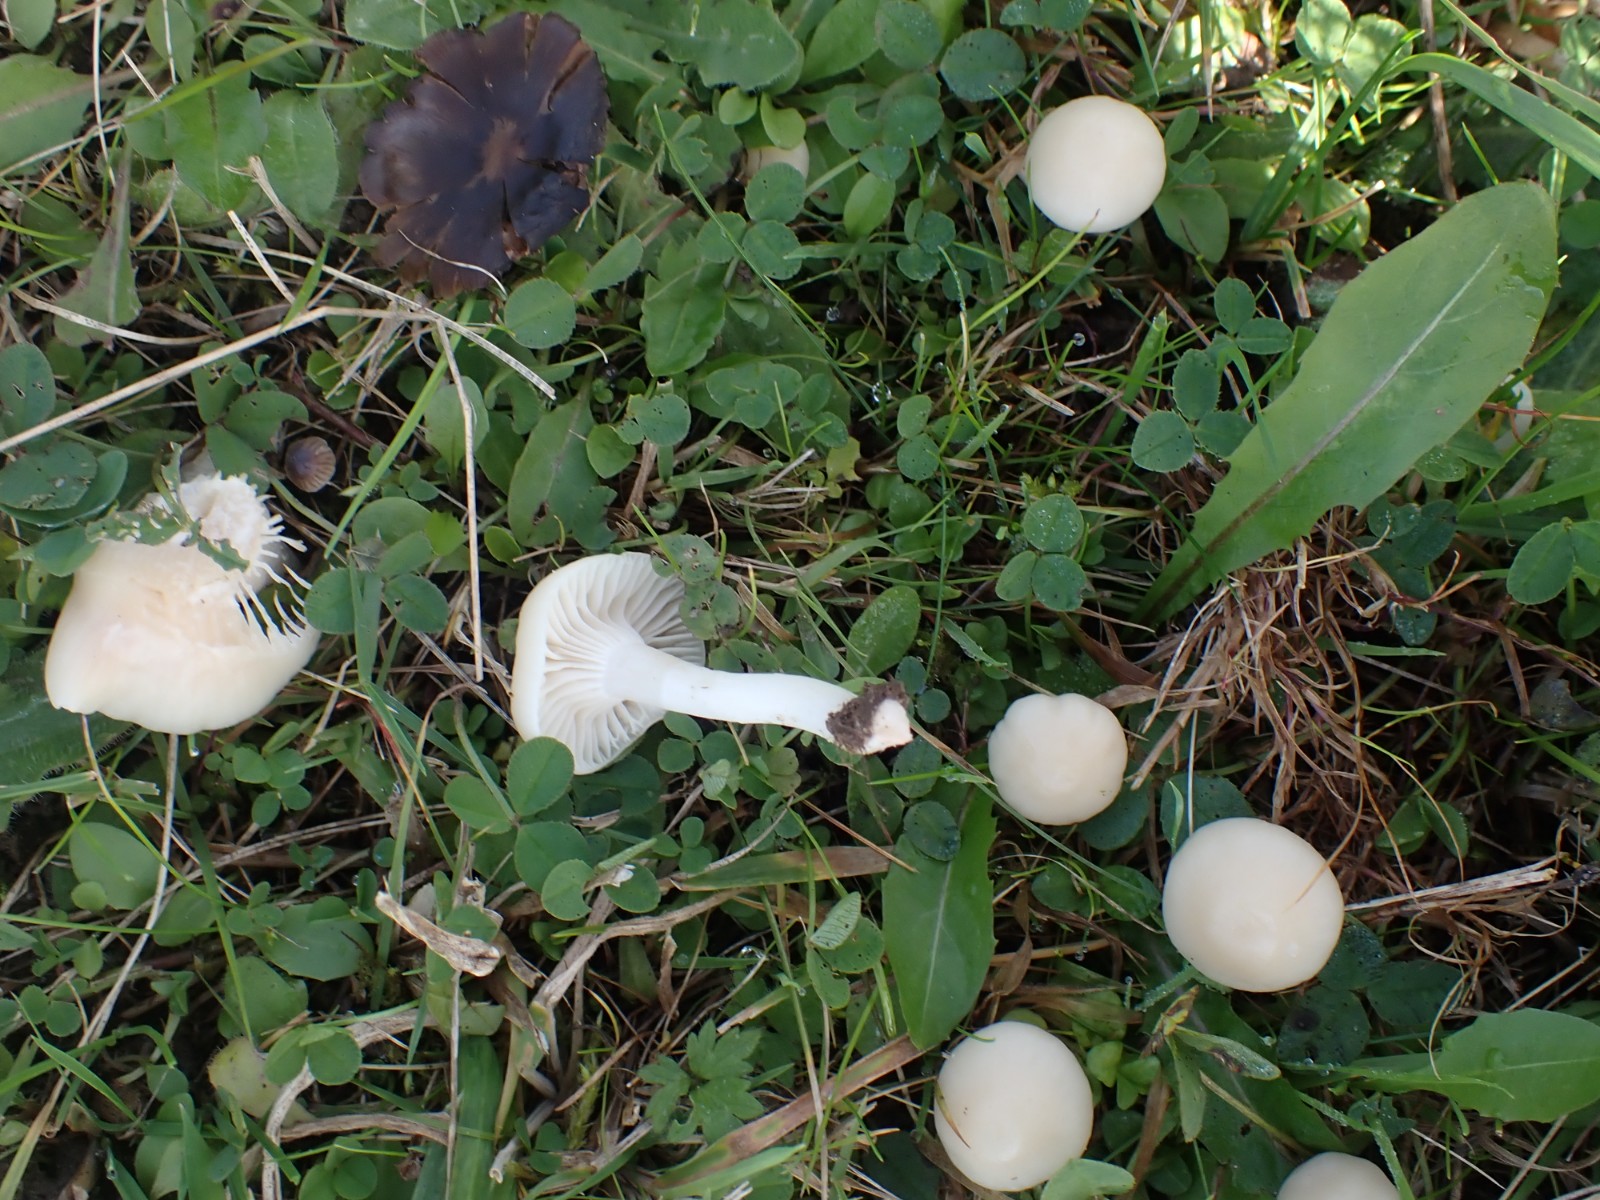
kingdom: Fungi
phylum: Basidiomycota
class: Agaricomycetes
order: Agaricales
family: Hygrophoraceae
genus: Cuphophyllus
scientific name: Cuphophyllus virgineus
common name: snehvid vokshat
